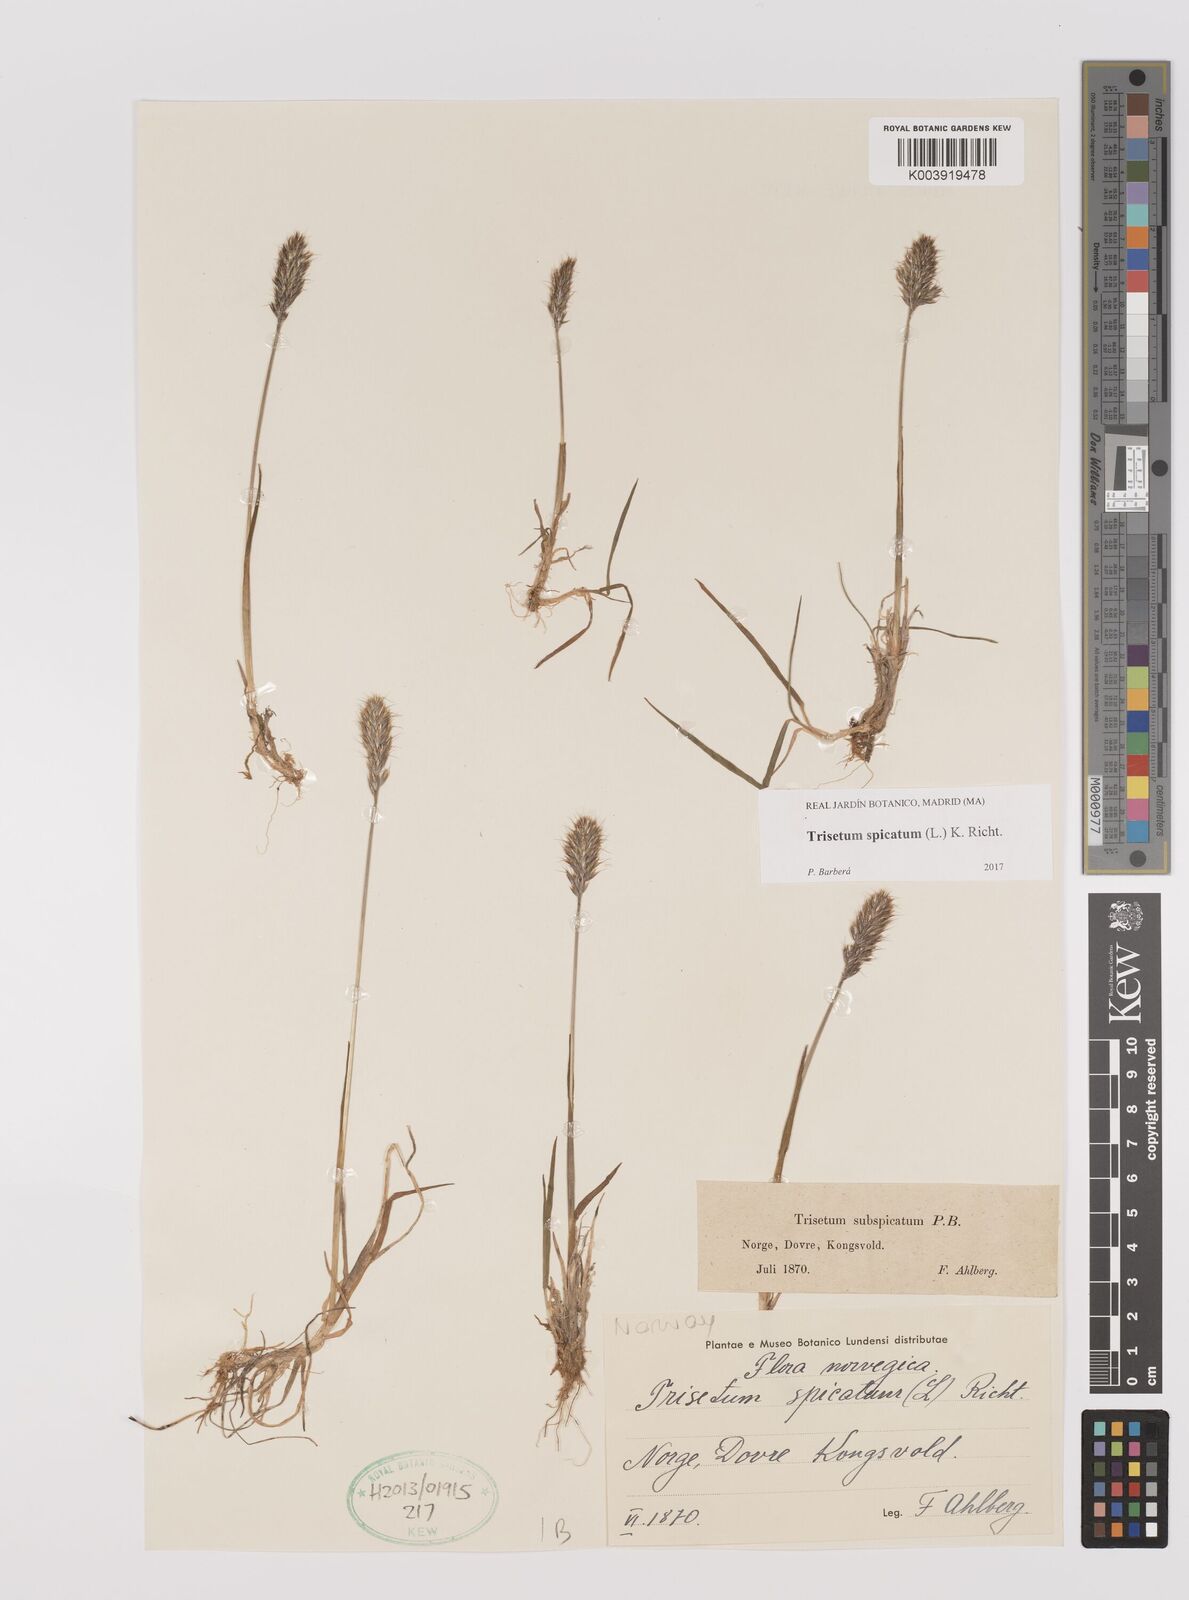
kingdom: Plantae
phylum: Tracheophyta
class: Liliopsida
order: Poales
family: Poaceae
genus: Koeleria
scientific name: Koeleria spicata
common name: Mountain trisetum
